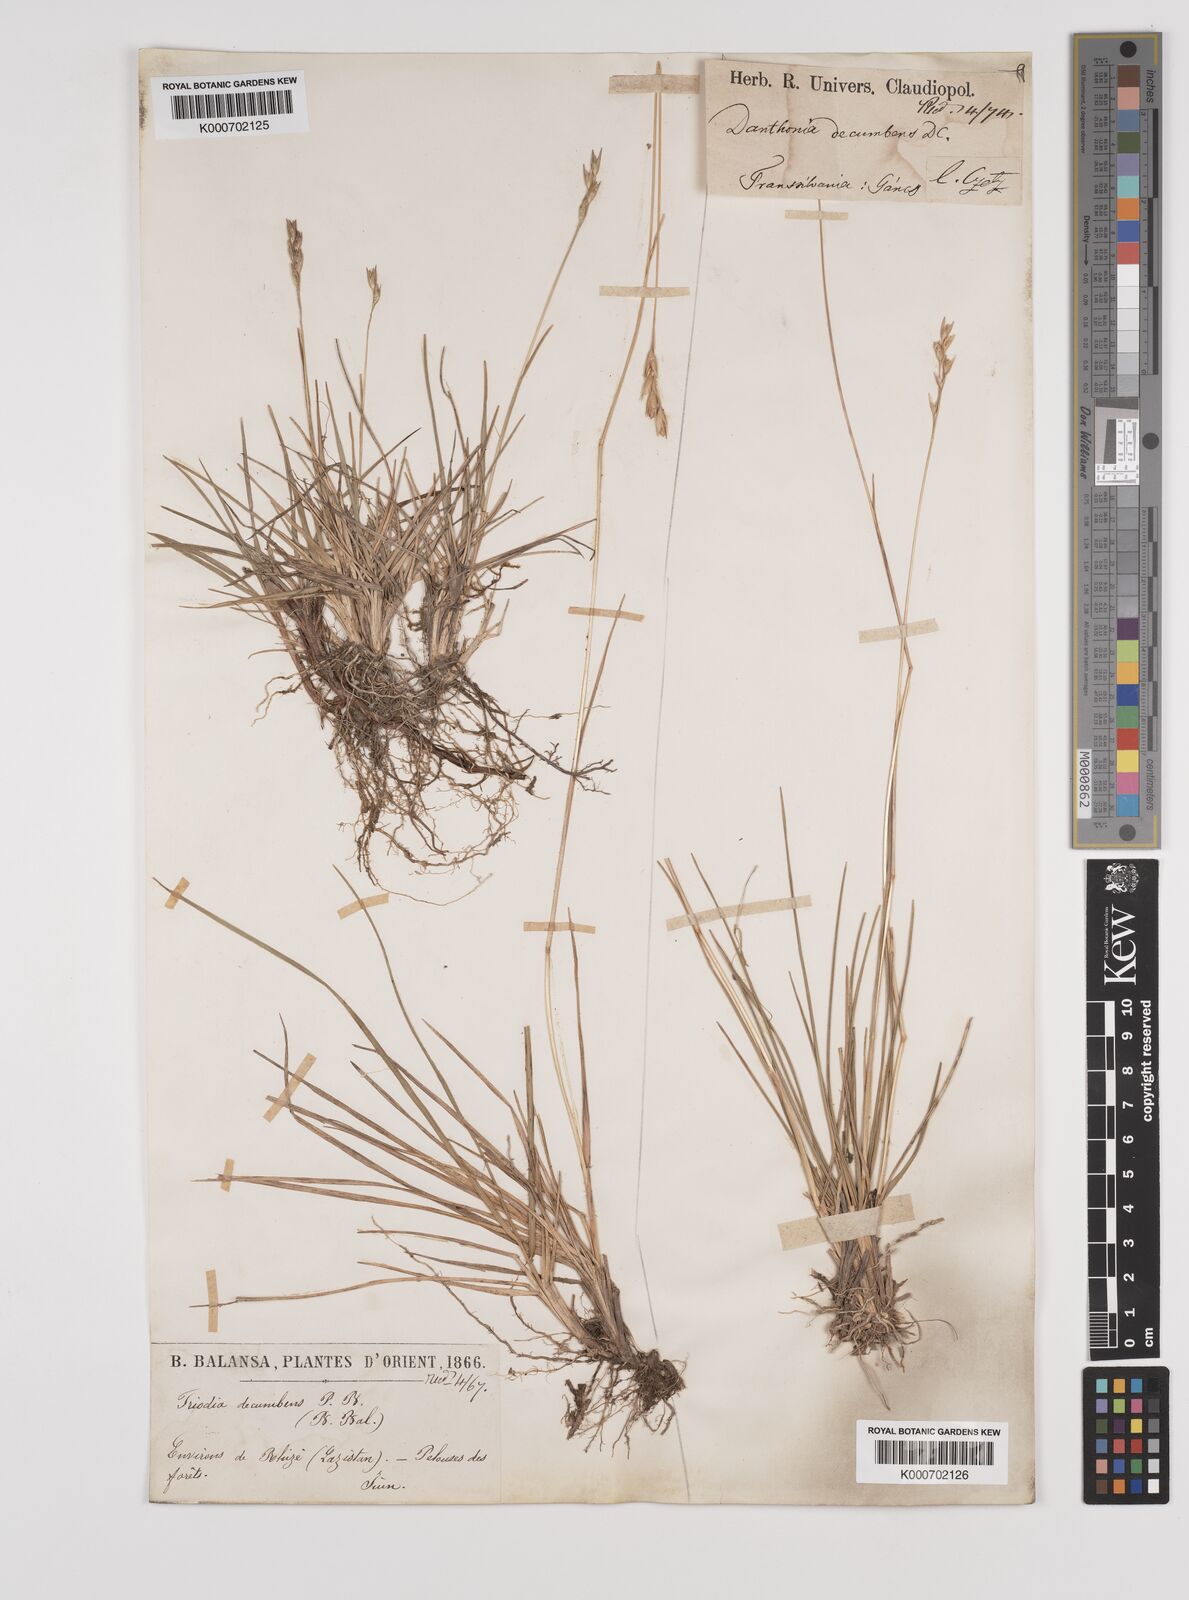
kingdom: Plantae
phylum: Tracheophyta
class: Liliopsida
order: Poales
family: Poaceae
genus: Danthonia
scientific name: Danthonia alpina
